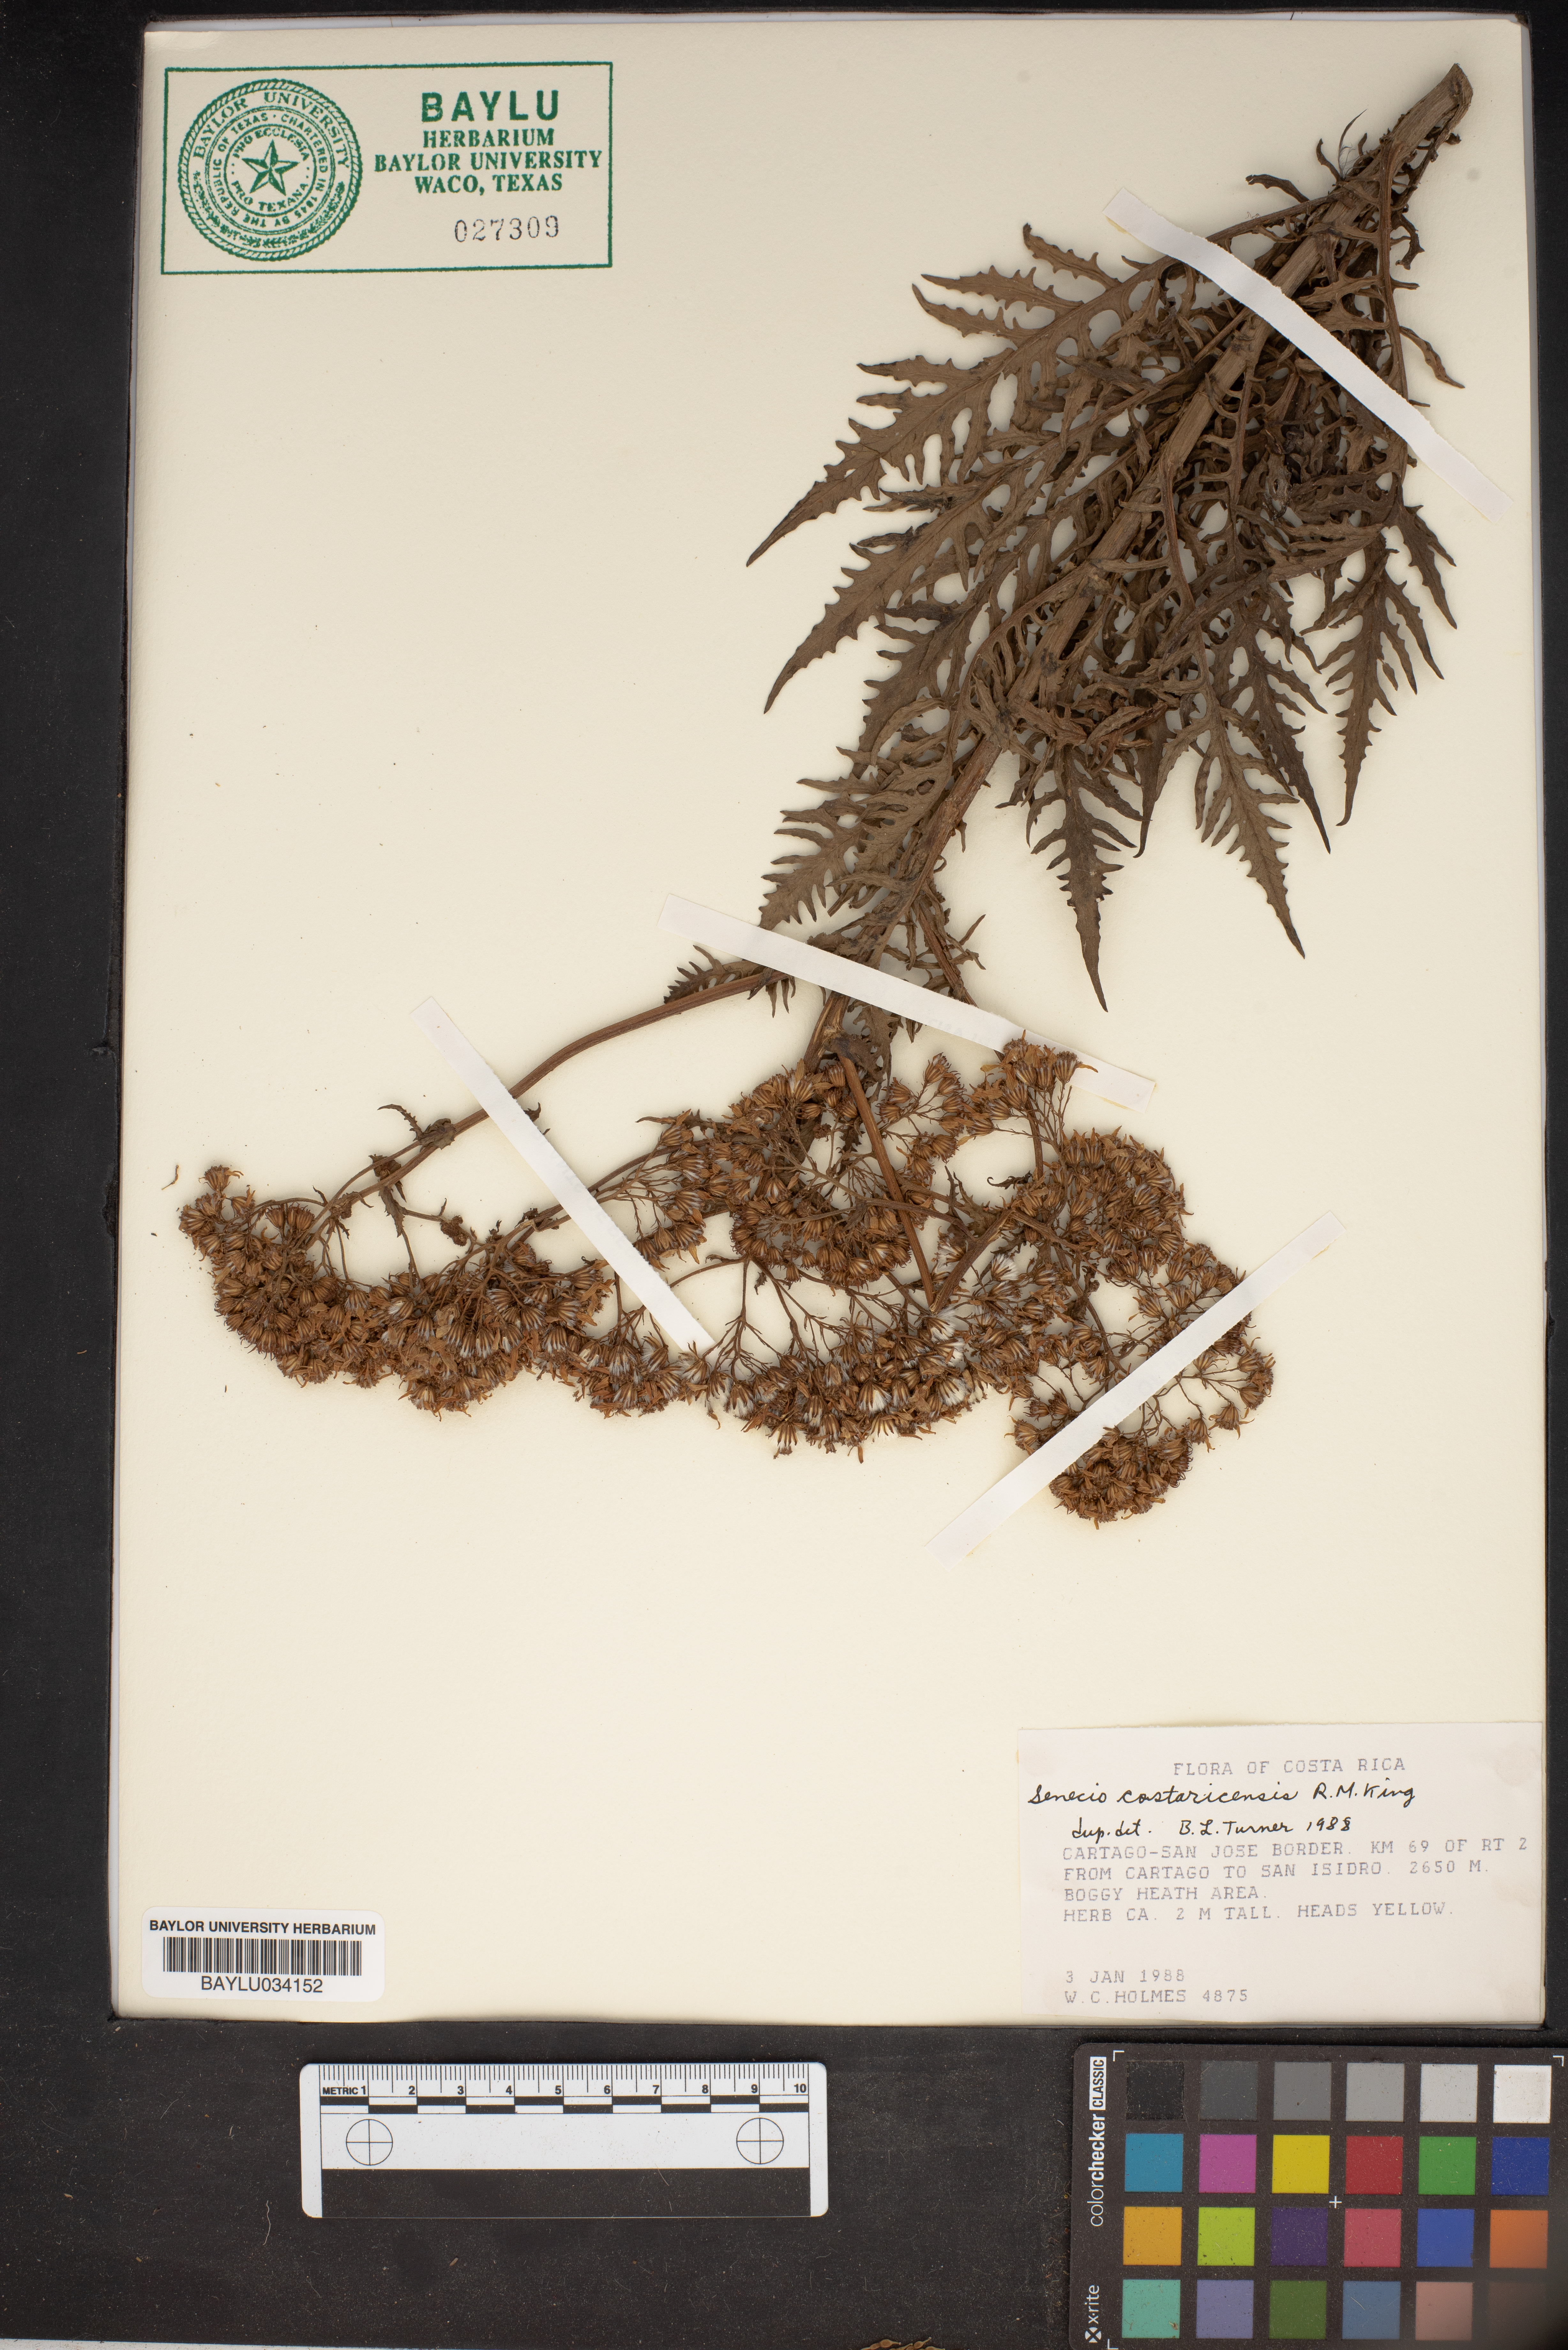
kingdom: Plantae
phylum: Tracheophyta
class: Magnoliopsida
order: Asterales
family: Asteraceae
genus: Senecio
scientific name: Senecio costaricensis
